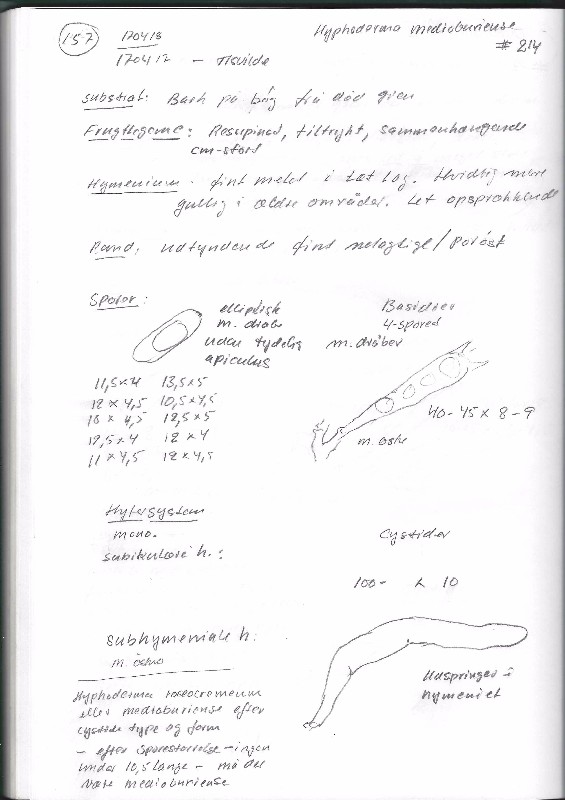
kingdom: Fungi
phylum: Basidiomycota
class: Agaricomycetes
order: Polyporales
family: Hyphodermataceae
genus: Hyphoderma
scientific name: Hyphoderma medioburiense
